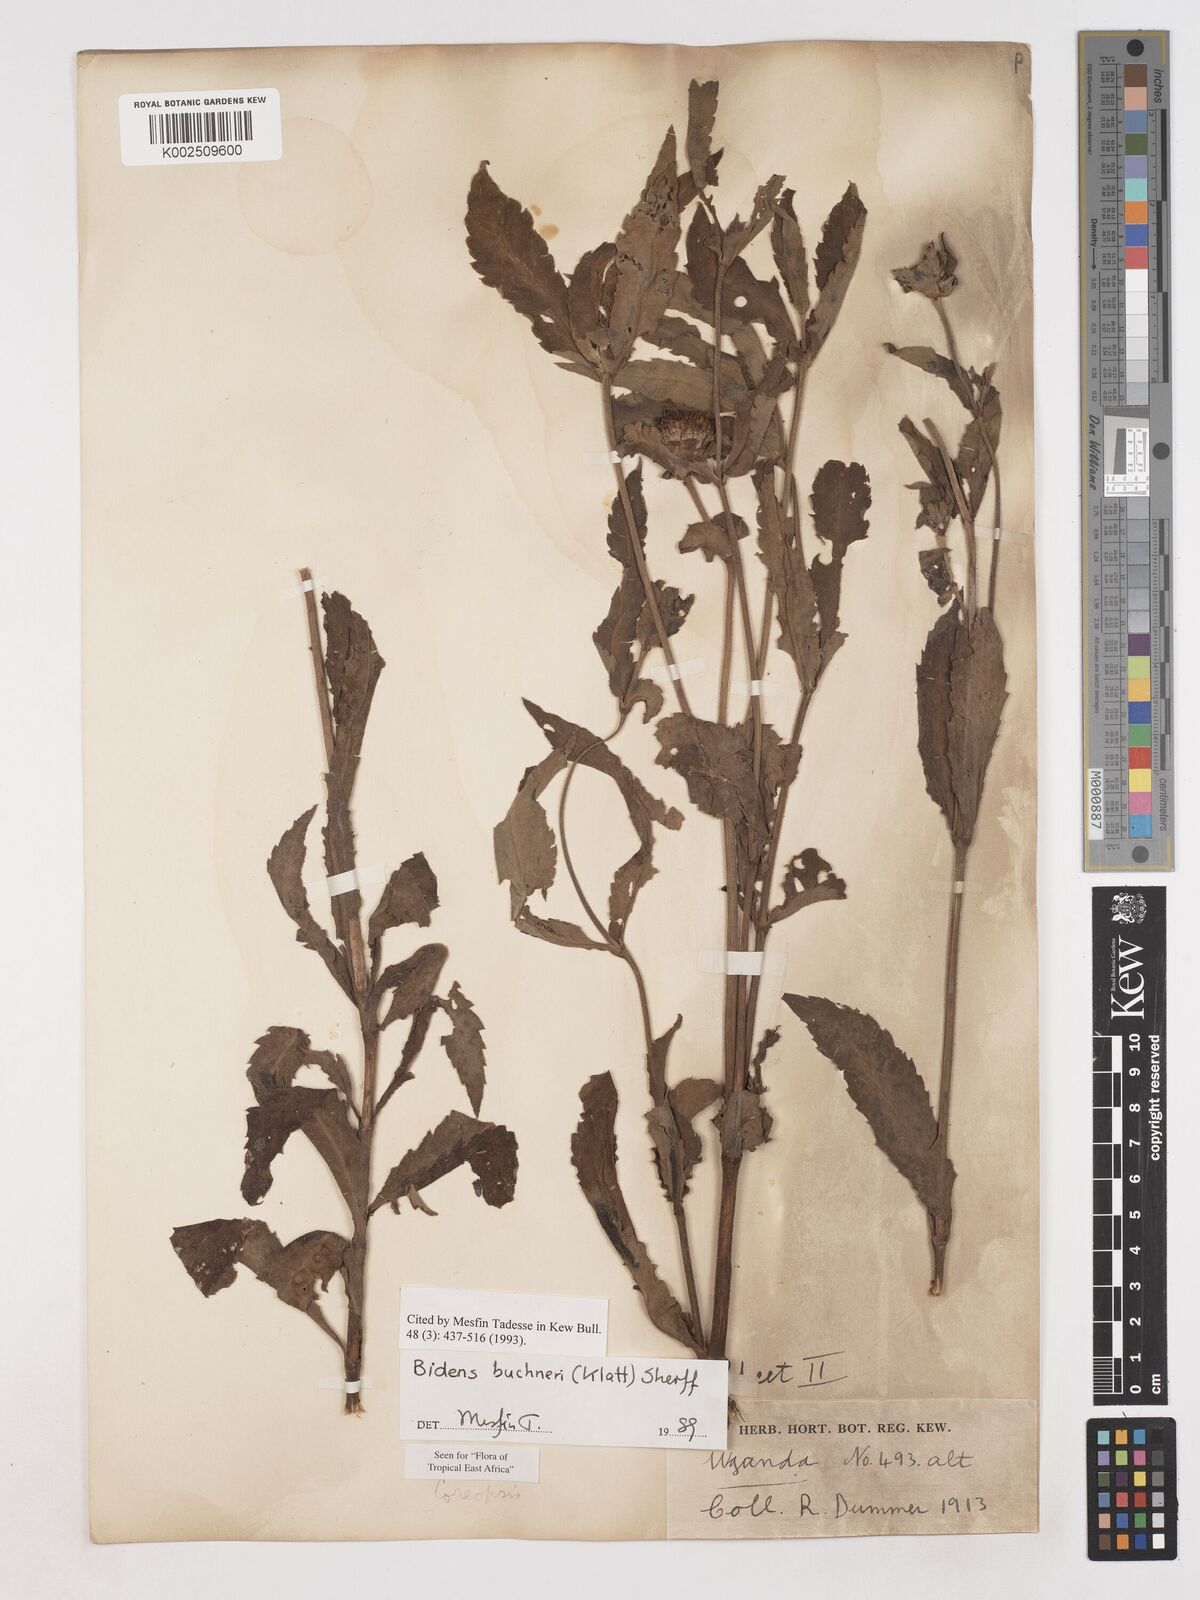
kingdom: Plantae
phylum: Tracheophyta
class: Magnoliopsida
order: Asterales
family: Asteraceae
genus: Bidens
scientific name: Bidens buchneri
